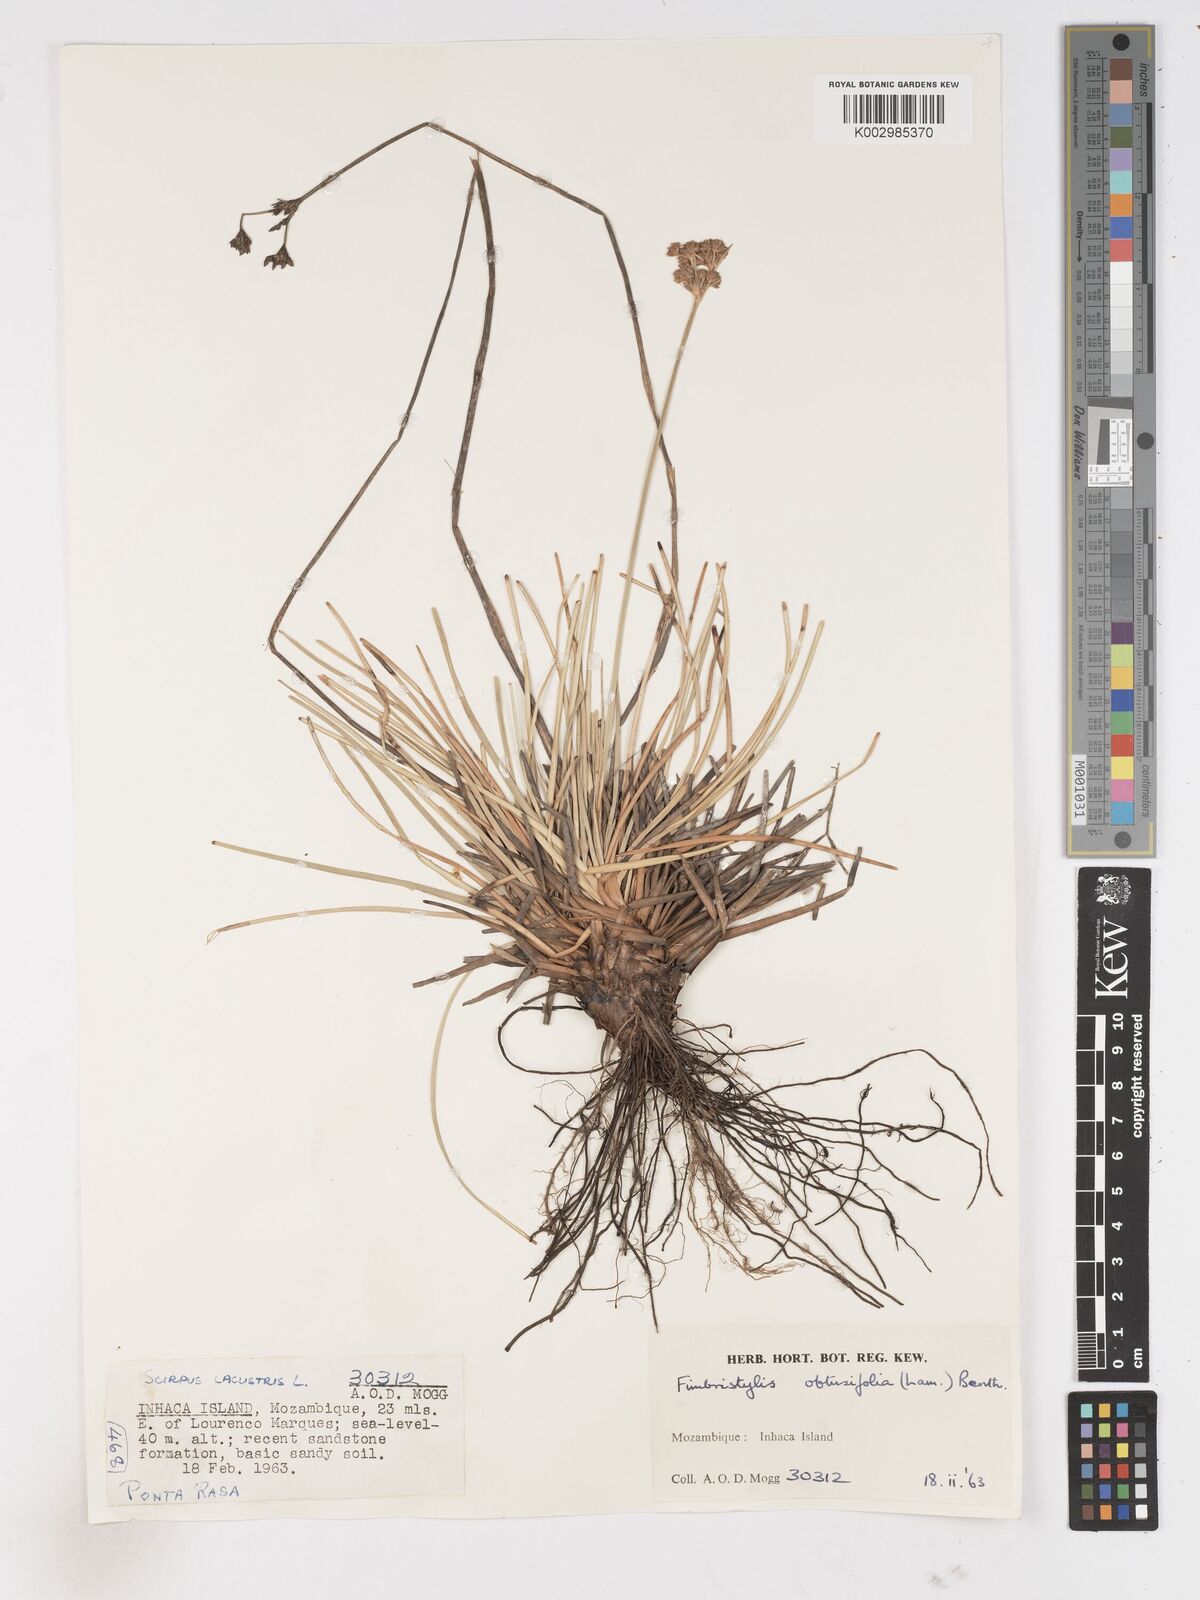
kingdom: Plantae
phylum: Tracheophyta
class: Liliopsida
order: Poales
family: Cyperaceae
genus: Fimbristylis
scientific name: Fimbristylis cymosa
